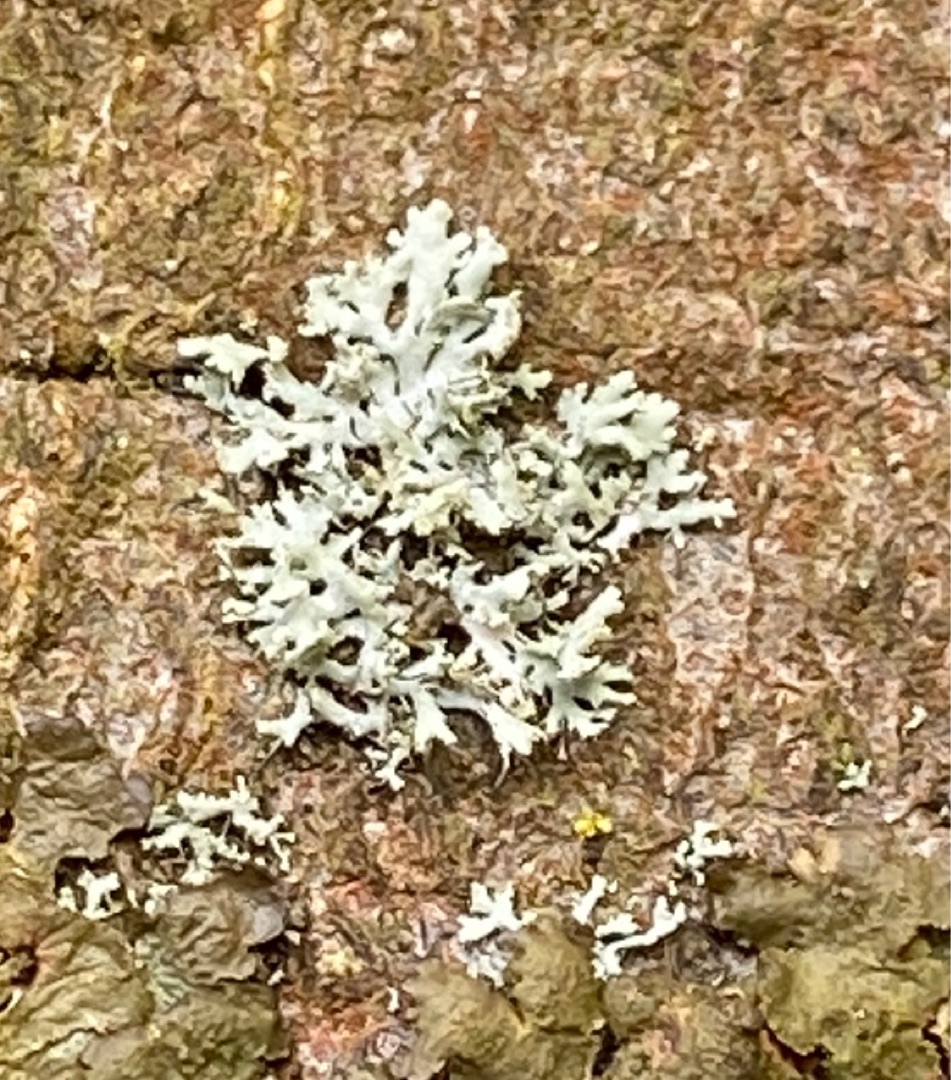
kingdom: Fungi
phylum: Ascomycota
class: Lecanoromycetes
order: Caliciales
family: Physciaceae
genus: Physcia
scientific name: Physcia tenella
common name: Spæd rosetlav
